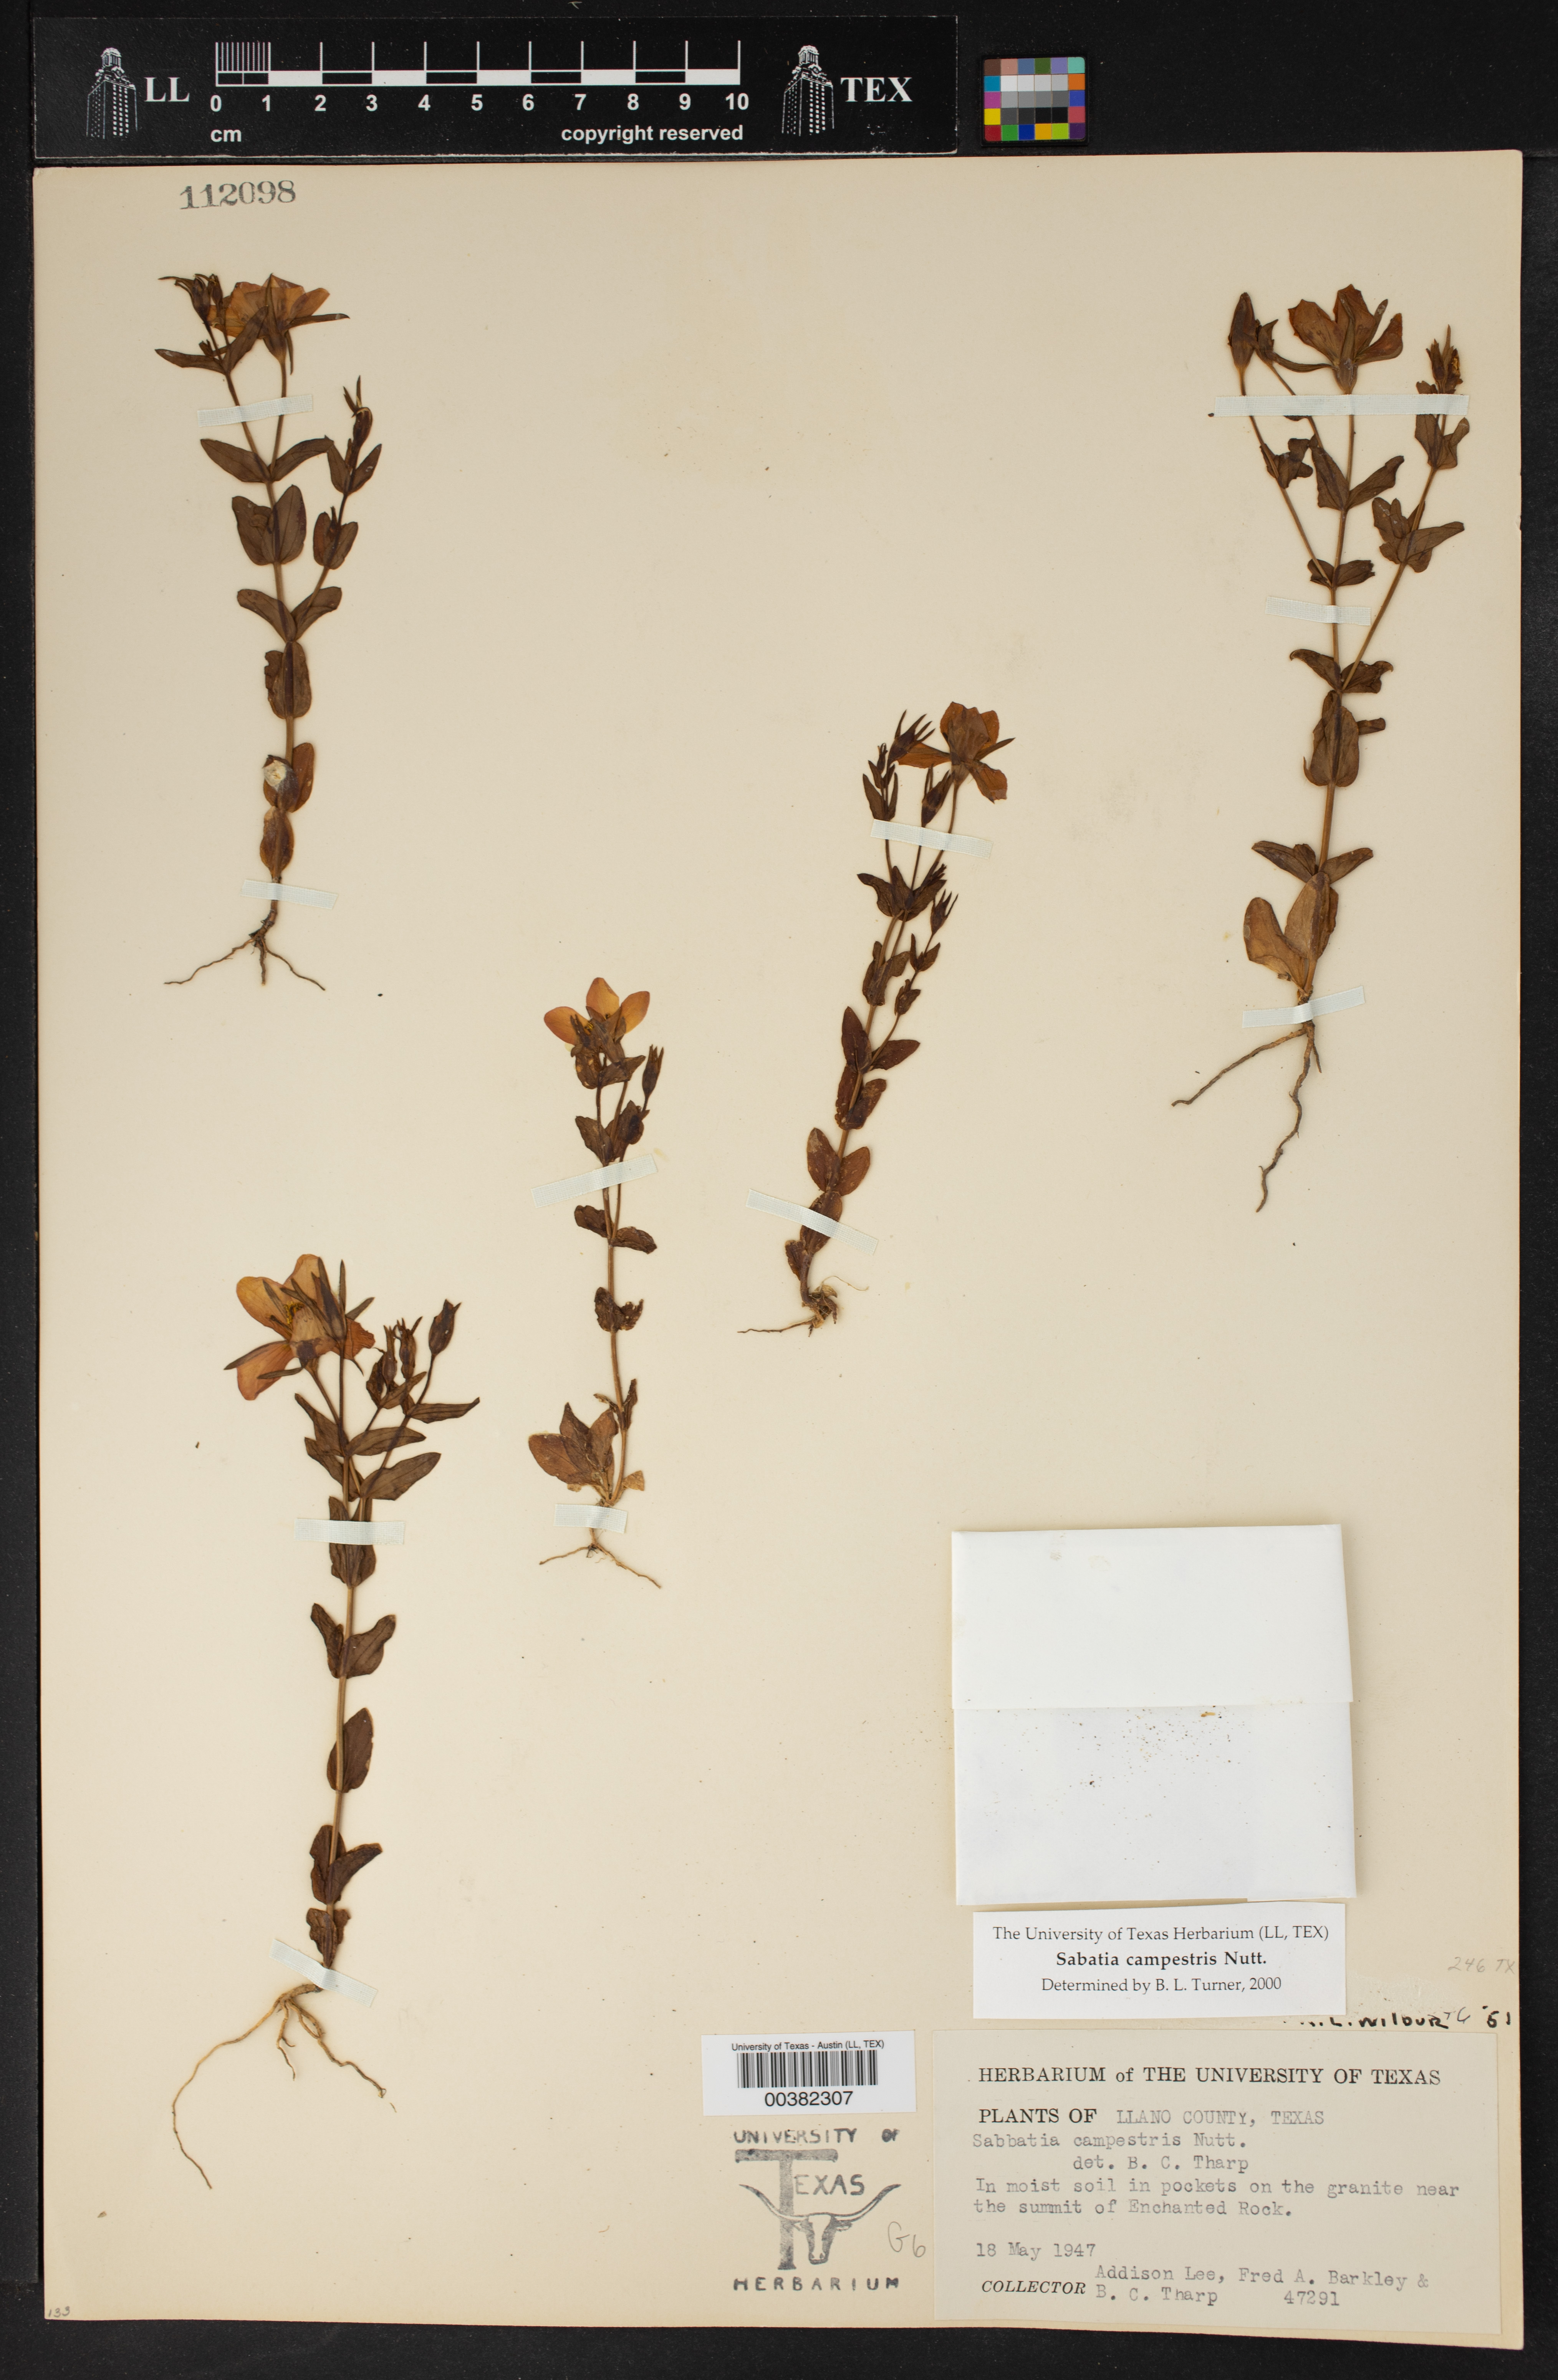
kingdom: Plantae
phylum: Tracheophyta
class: Magnoliopsida
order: Gentianales
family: Gentianaceae
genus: Sabatia
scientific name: Sabatia campestris
